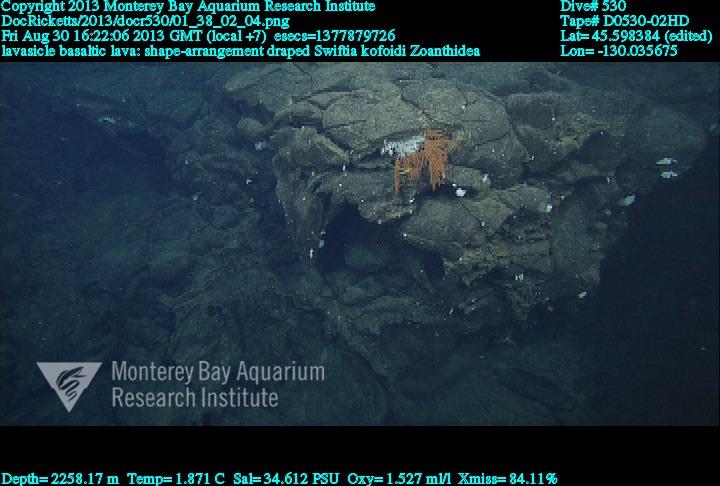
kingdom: Animalia
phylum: Cnidaria
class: Anthozoa
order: Malacalcyonacea
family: Gorgoniidae
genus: Callistephanus
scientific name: Callistephanus kofoidi
